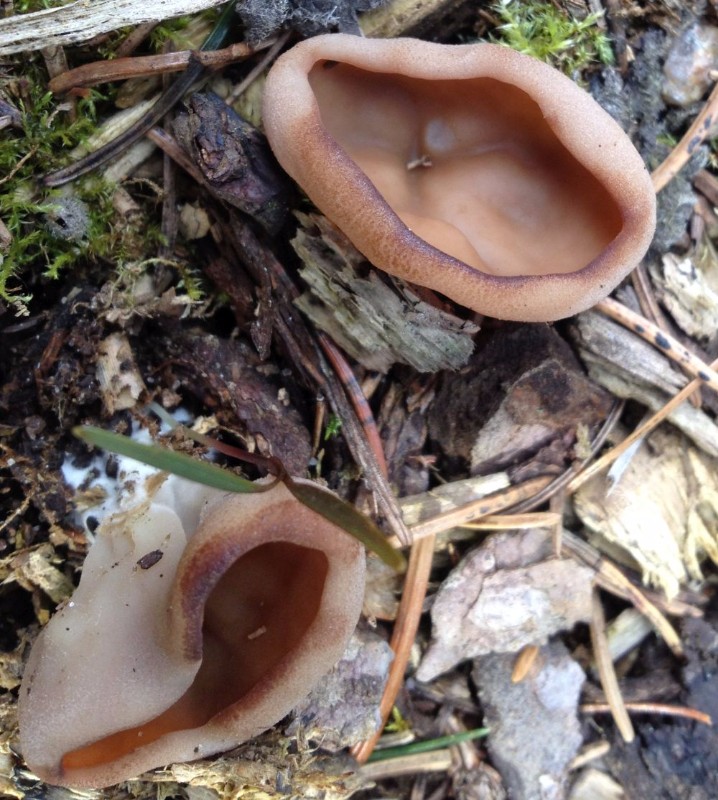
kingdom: Fungi
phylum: Ascomycota
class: Pezizomycetes
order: Pezizales
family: Discinaceae
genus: Discina
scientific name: Discina ancilis
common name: udbredt stenmorkel
